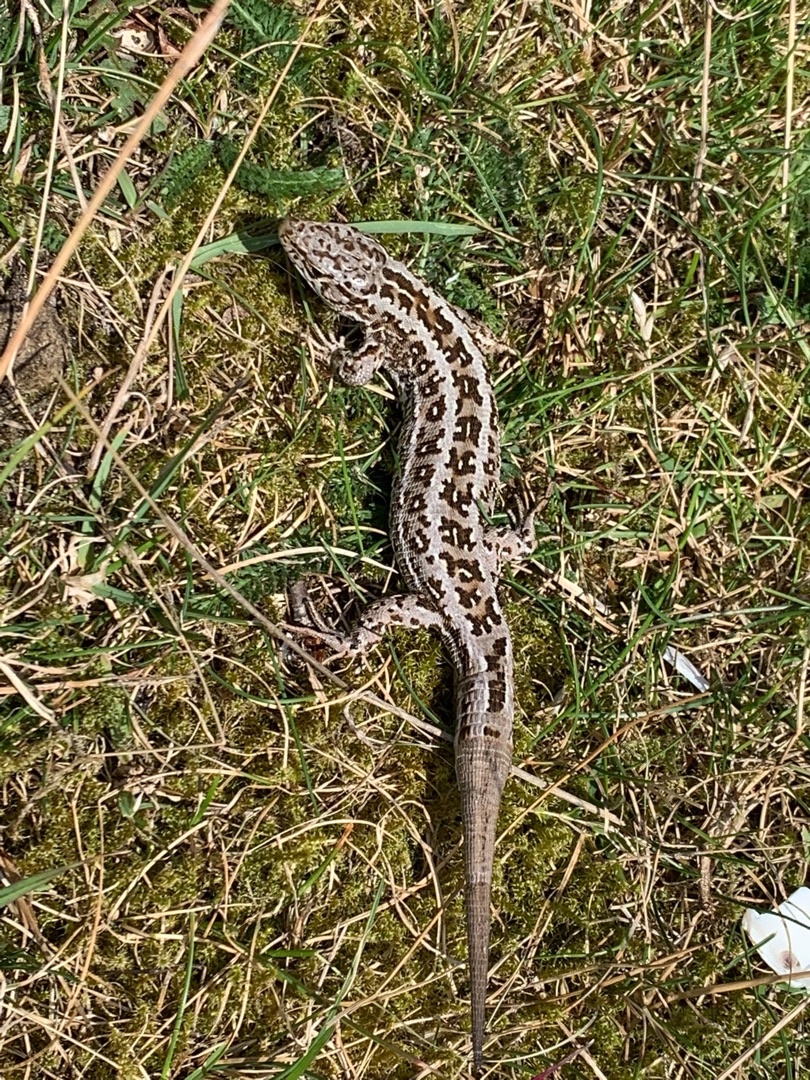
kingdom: Animalia
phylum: Chordata
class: Squamata
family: Lacertidae
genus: Lacerta
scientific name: Lacerta agilis
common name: Markfirben
